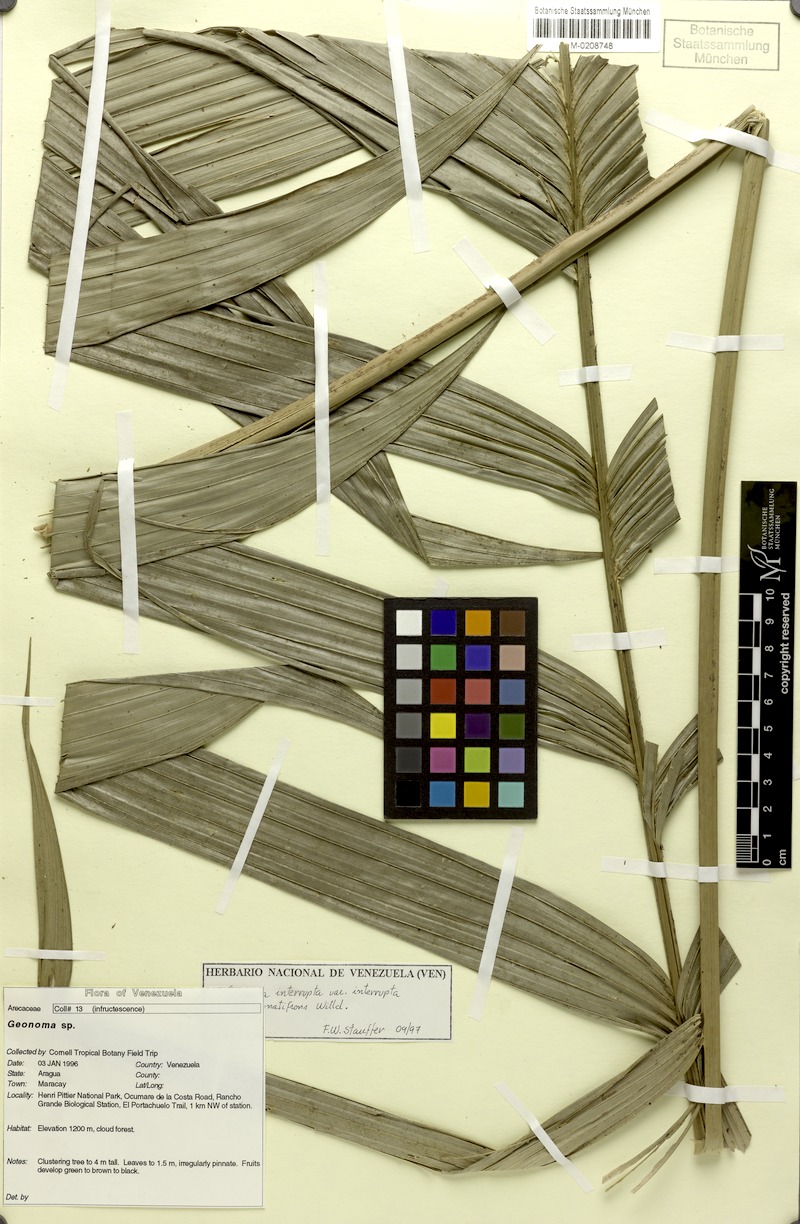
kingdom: Plantae
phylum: Tracheophyta
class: Liliopsida
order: Arecales
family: Arecaceae
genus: Geonoma
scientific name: Geonoma interrupta
